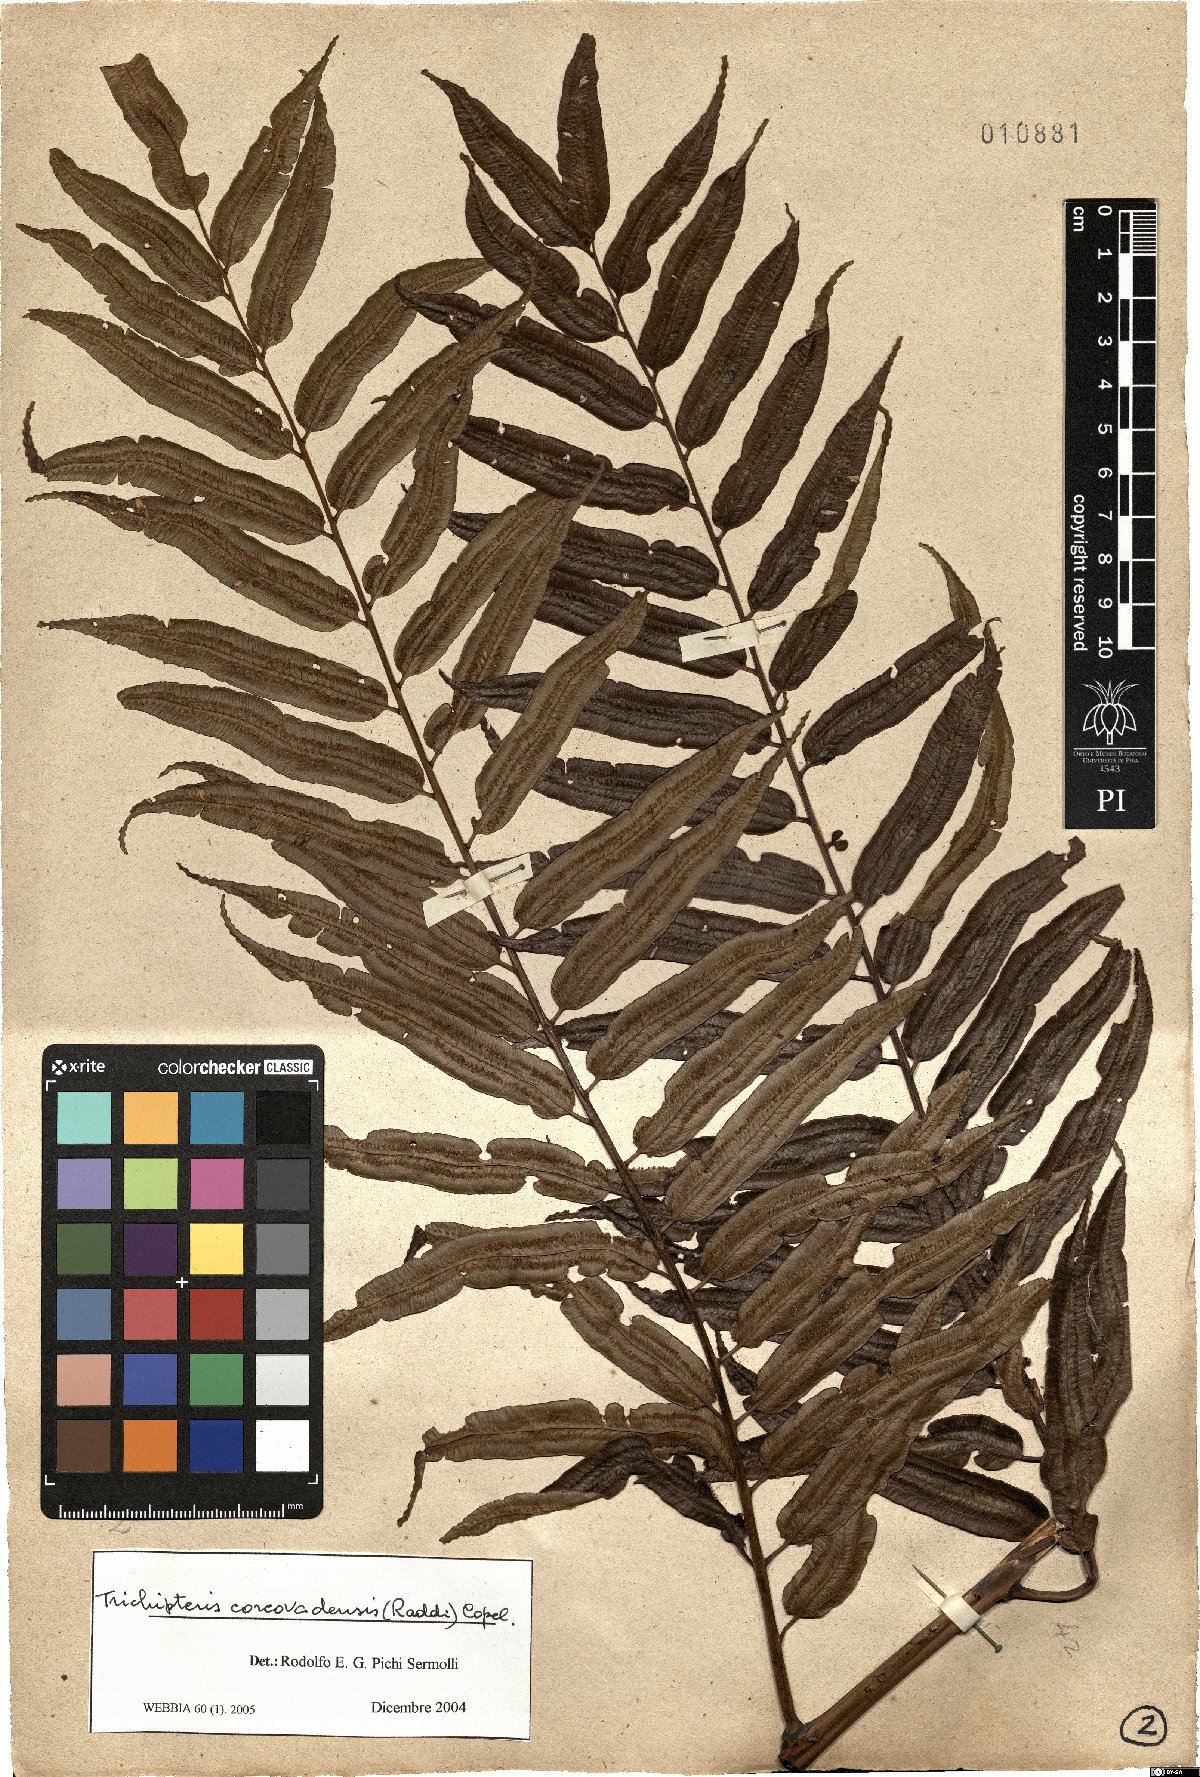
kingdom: Plantae
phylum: Tracheophyta
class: Polypodiopsida
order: Cyatheales
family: Cyatheaceae
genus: Cyathea
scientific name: Cyathea corcovadensis
